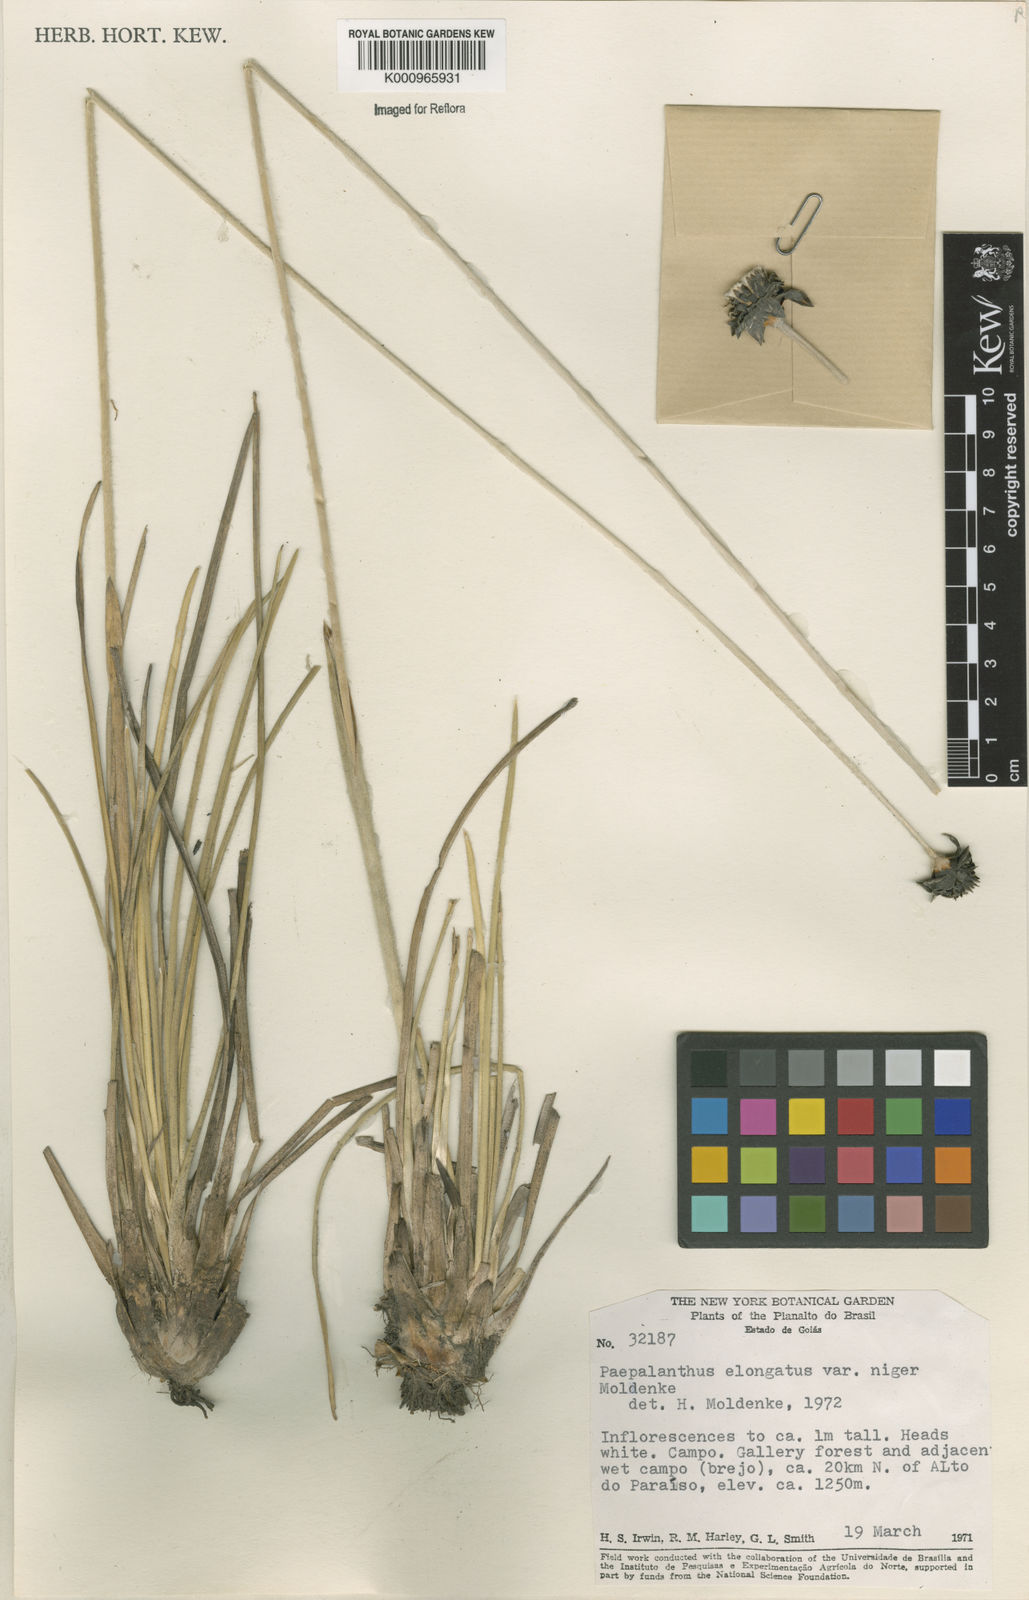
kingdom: Plantae
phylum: Tracheophyta
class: Liliopsida
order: Poales
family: Eriocaulaceae
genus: Paepalanthus
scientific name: Paepalanthus
